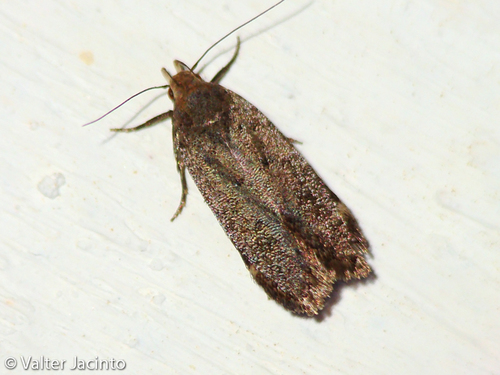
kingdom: Animalia
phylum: Arthropoda
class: Insecta
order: Lepidoptera
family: Gelechiidae
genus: Anacampsis
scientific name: Anacampsis scintillella
